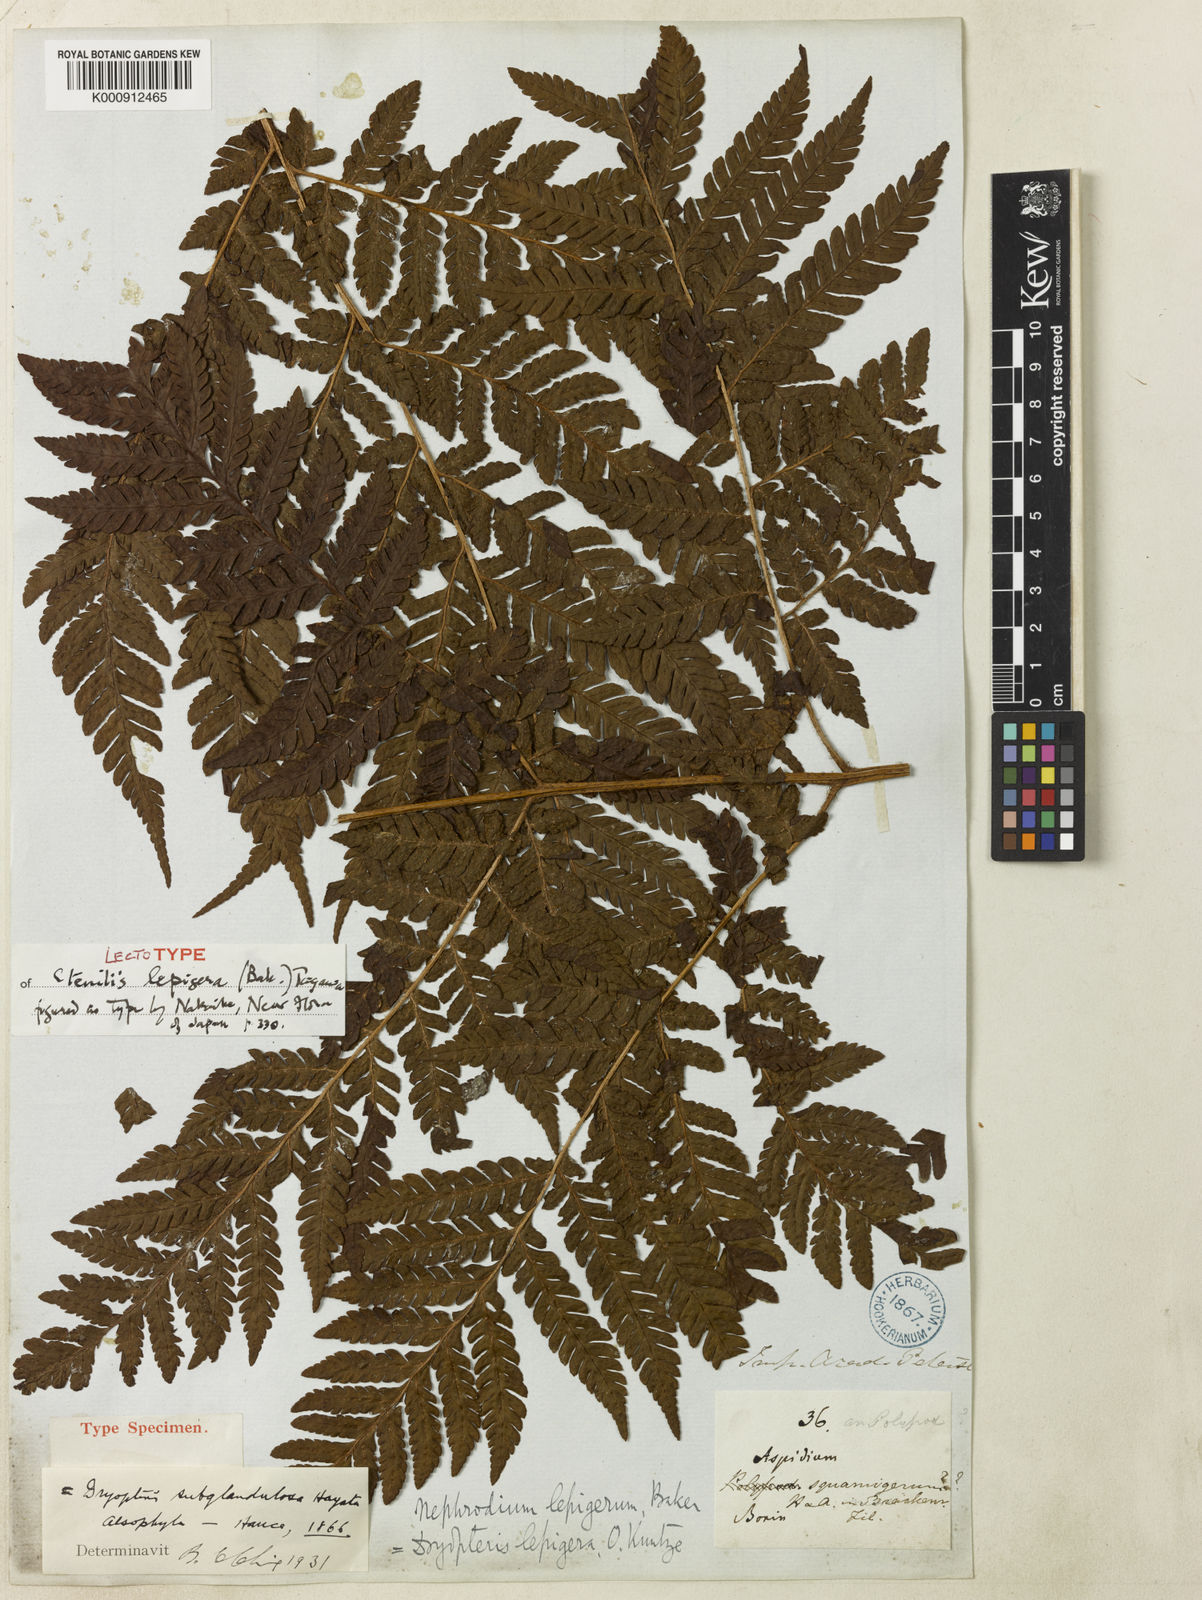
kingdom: Plantae
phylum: Tracheophyta
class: Polypodiopsida
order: Polypodiales
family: Dryopteridaceae
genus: Ctenitis
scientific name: Ctenitis subglandulosa
